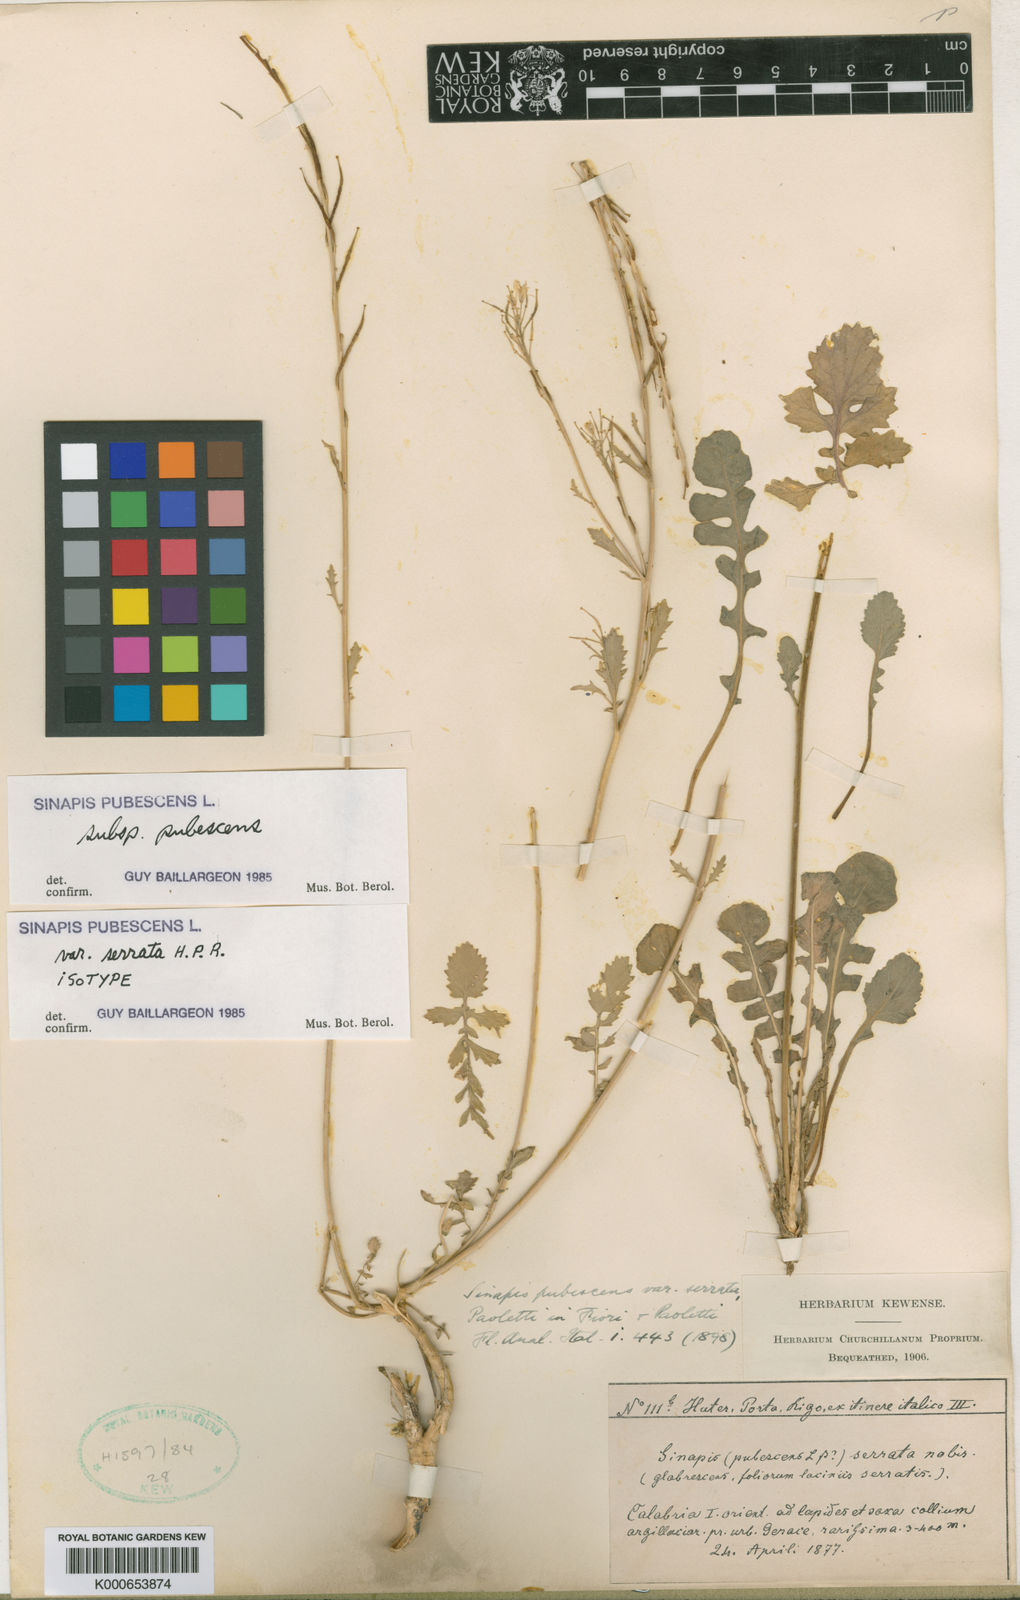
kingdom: Plantae
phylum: Tracheophyta
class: Magnoliopsida
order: Brassicales
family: Brassicaceae
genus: Sinapis
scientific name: Sinapis pubescens
